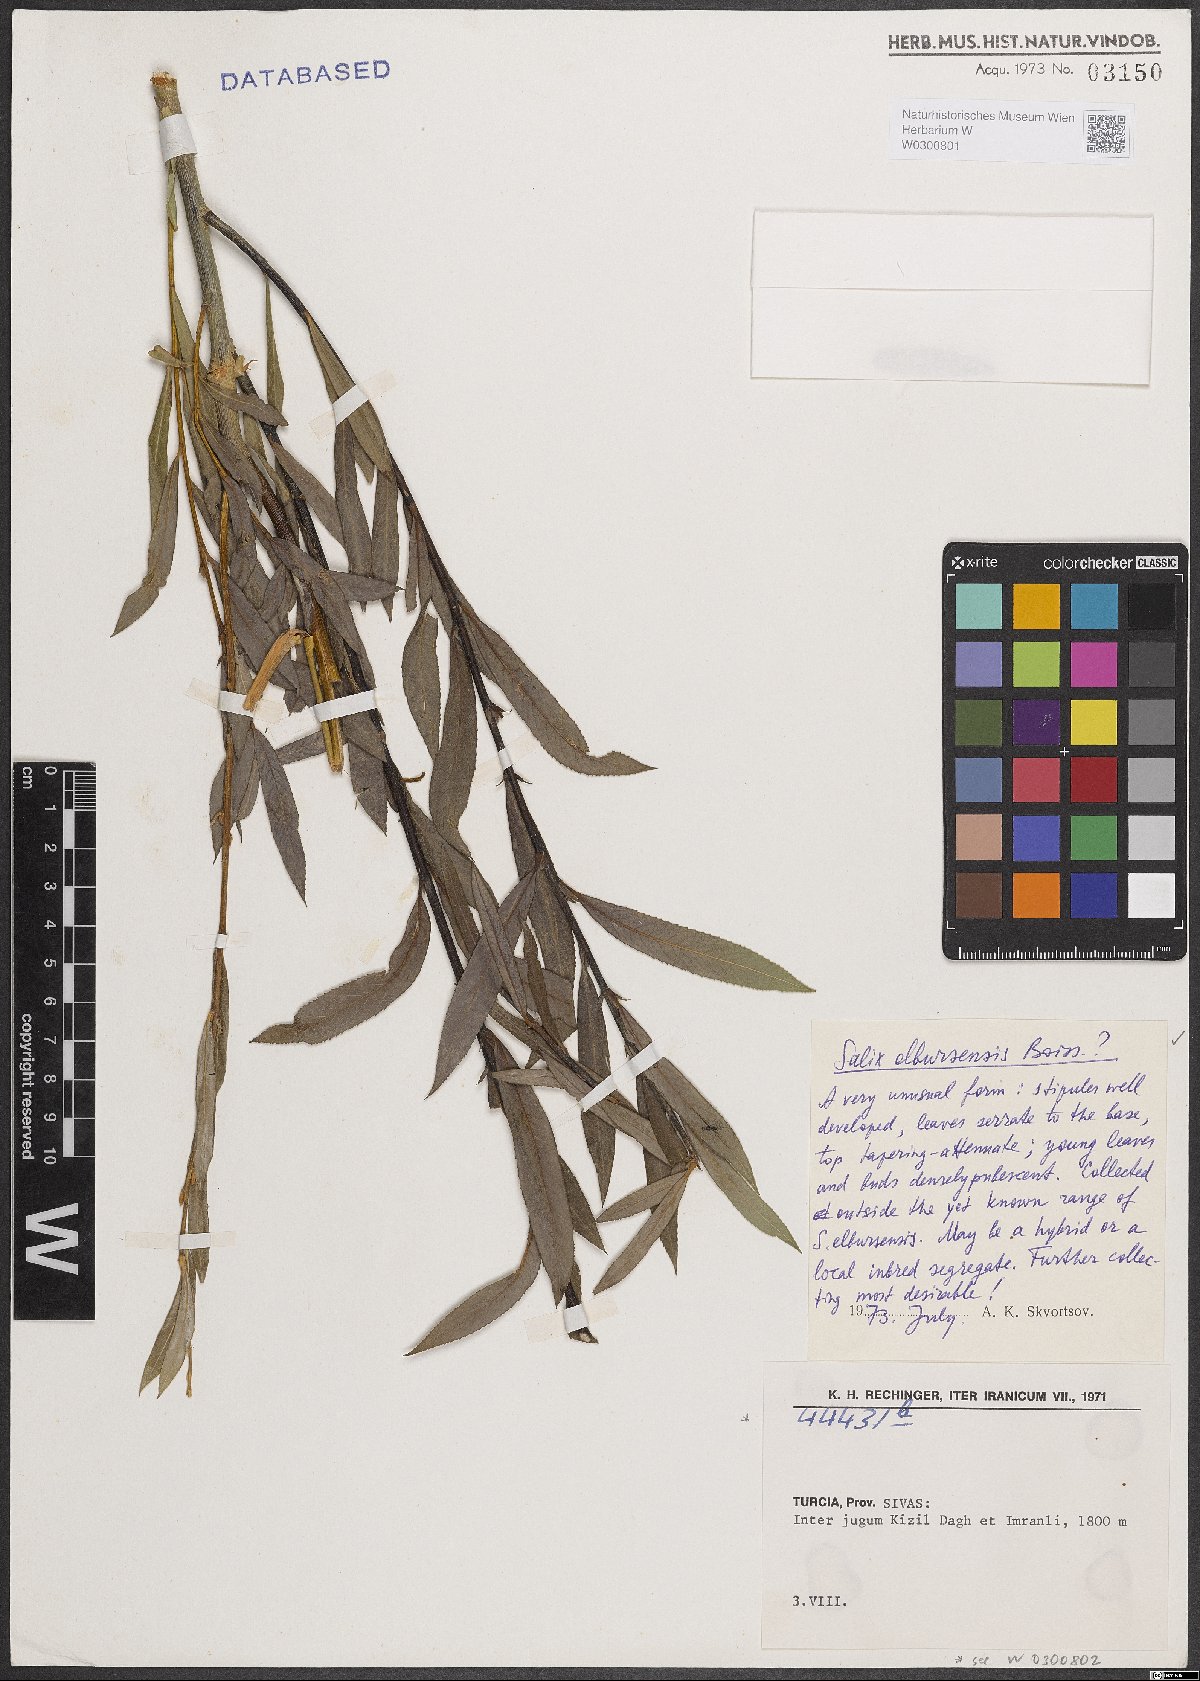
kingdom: Plantae
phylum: Tracheophyta
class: Magnoliopsida
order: Malpighiales
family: Salicaceae
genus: Salix
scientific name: Salix elbursensis
